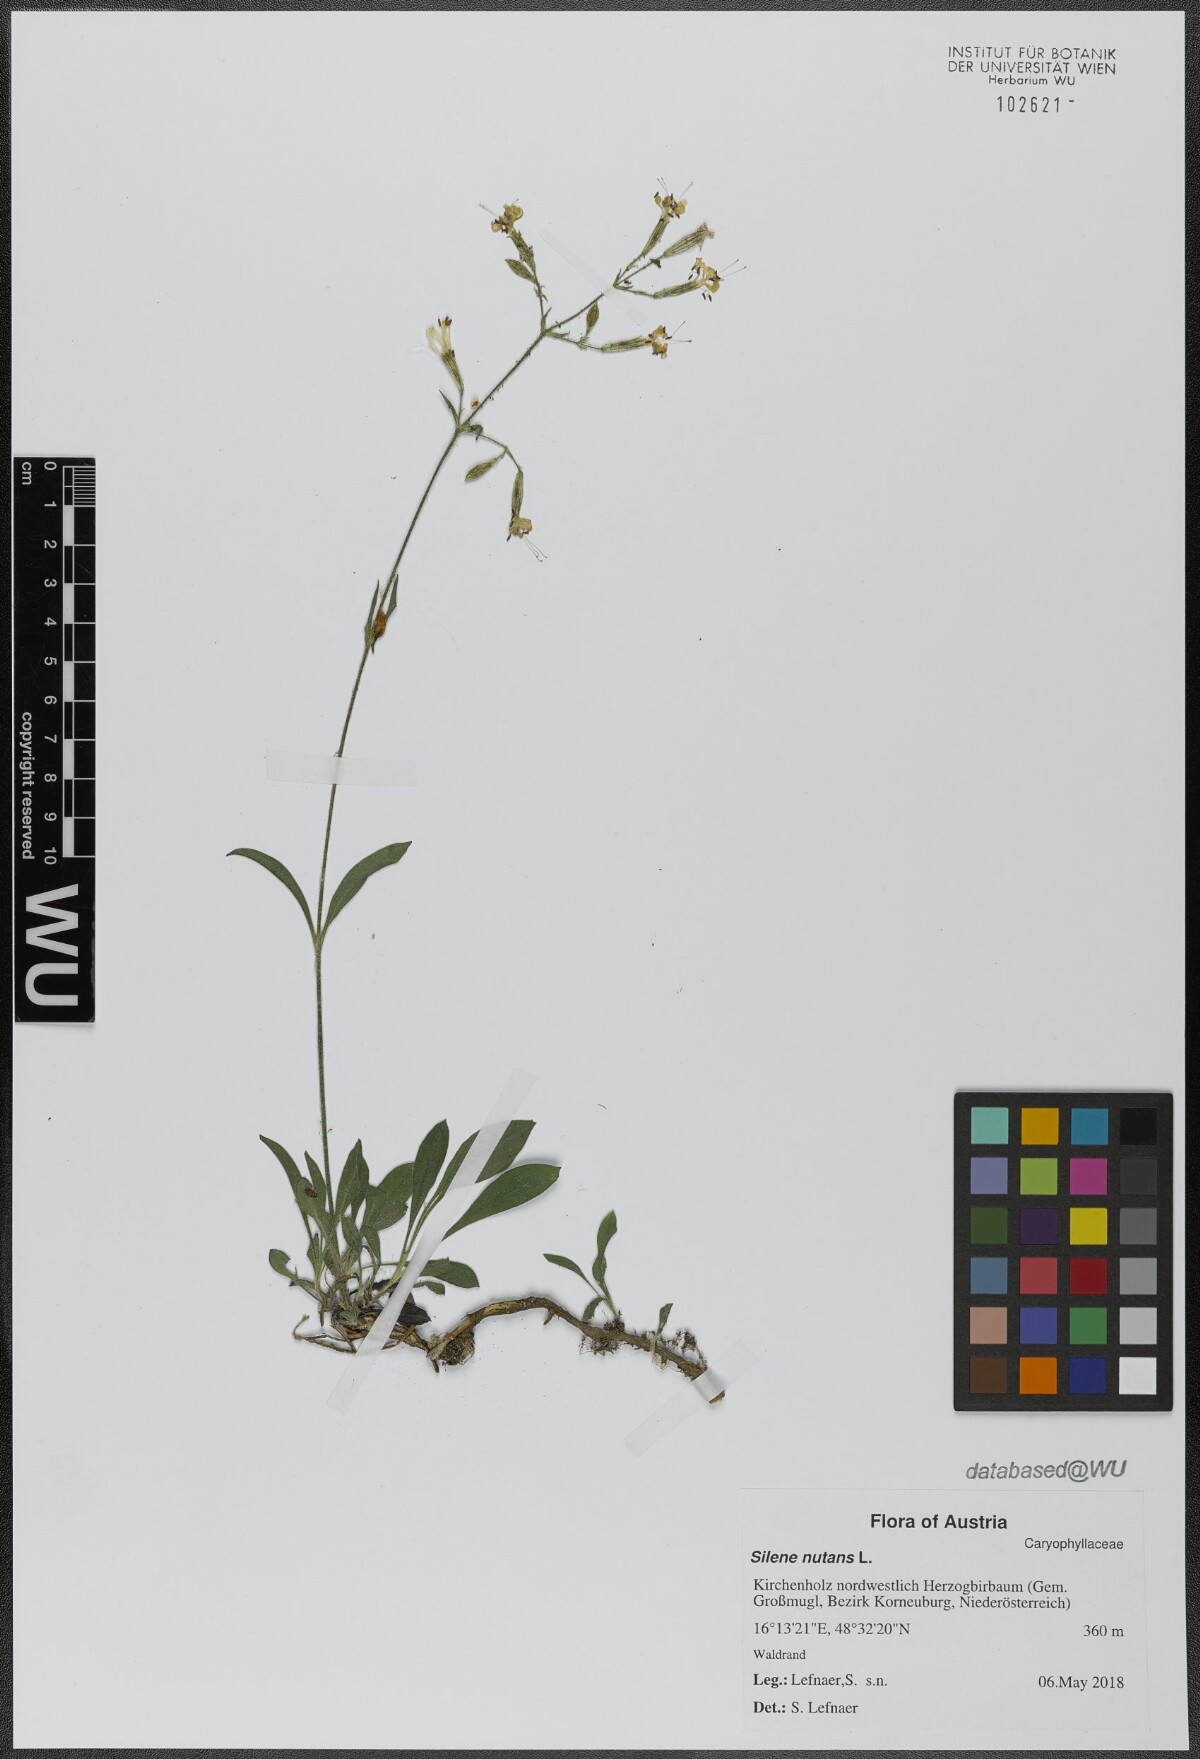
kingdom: Plantae
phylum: Tracheophyta
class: Magnoliopsida
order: Caryophyllales
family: Caryophyllaceae
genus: Silene
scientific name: Silene nutans
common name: Nottingham catchfly
